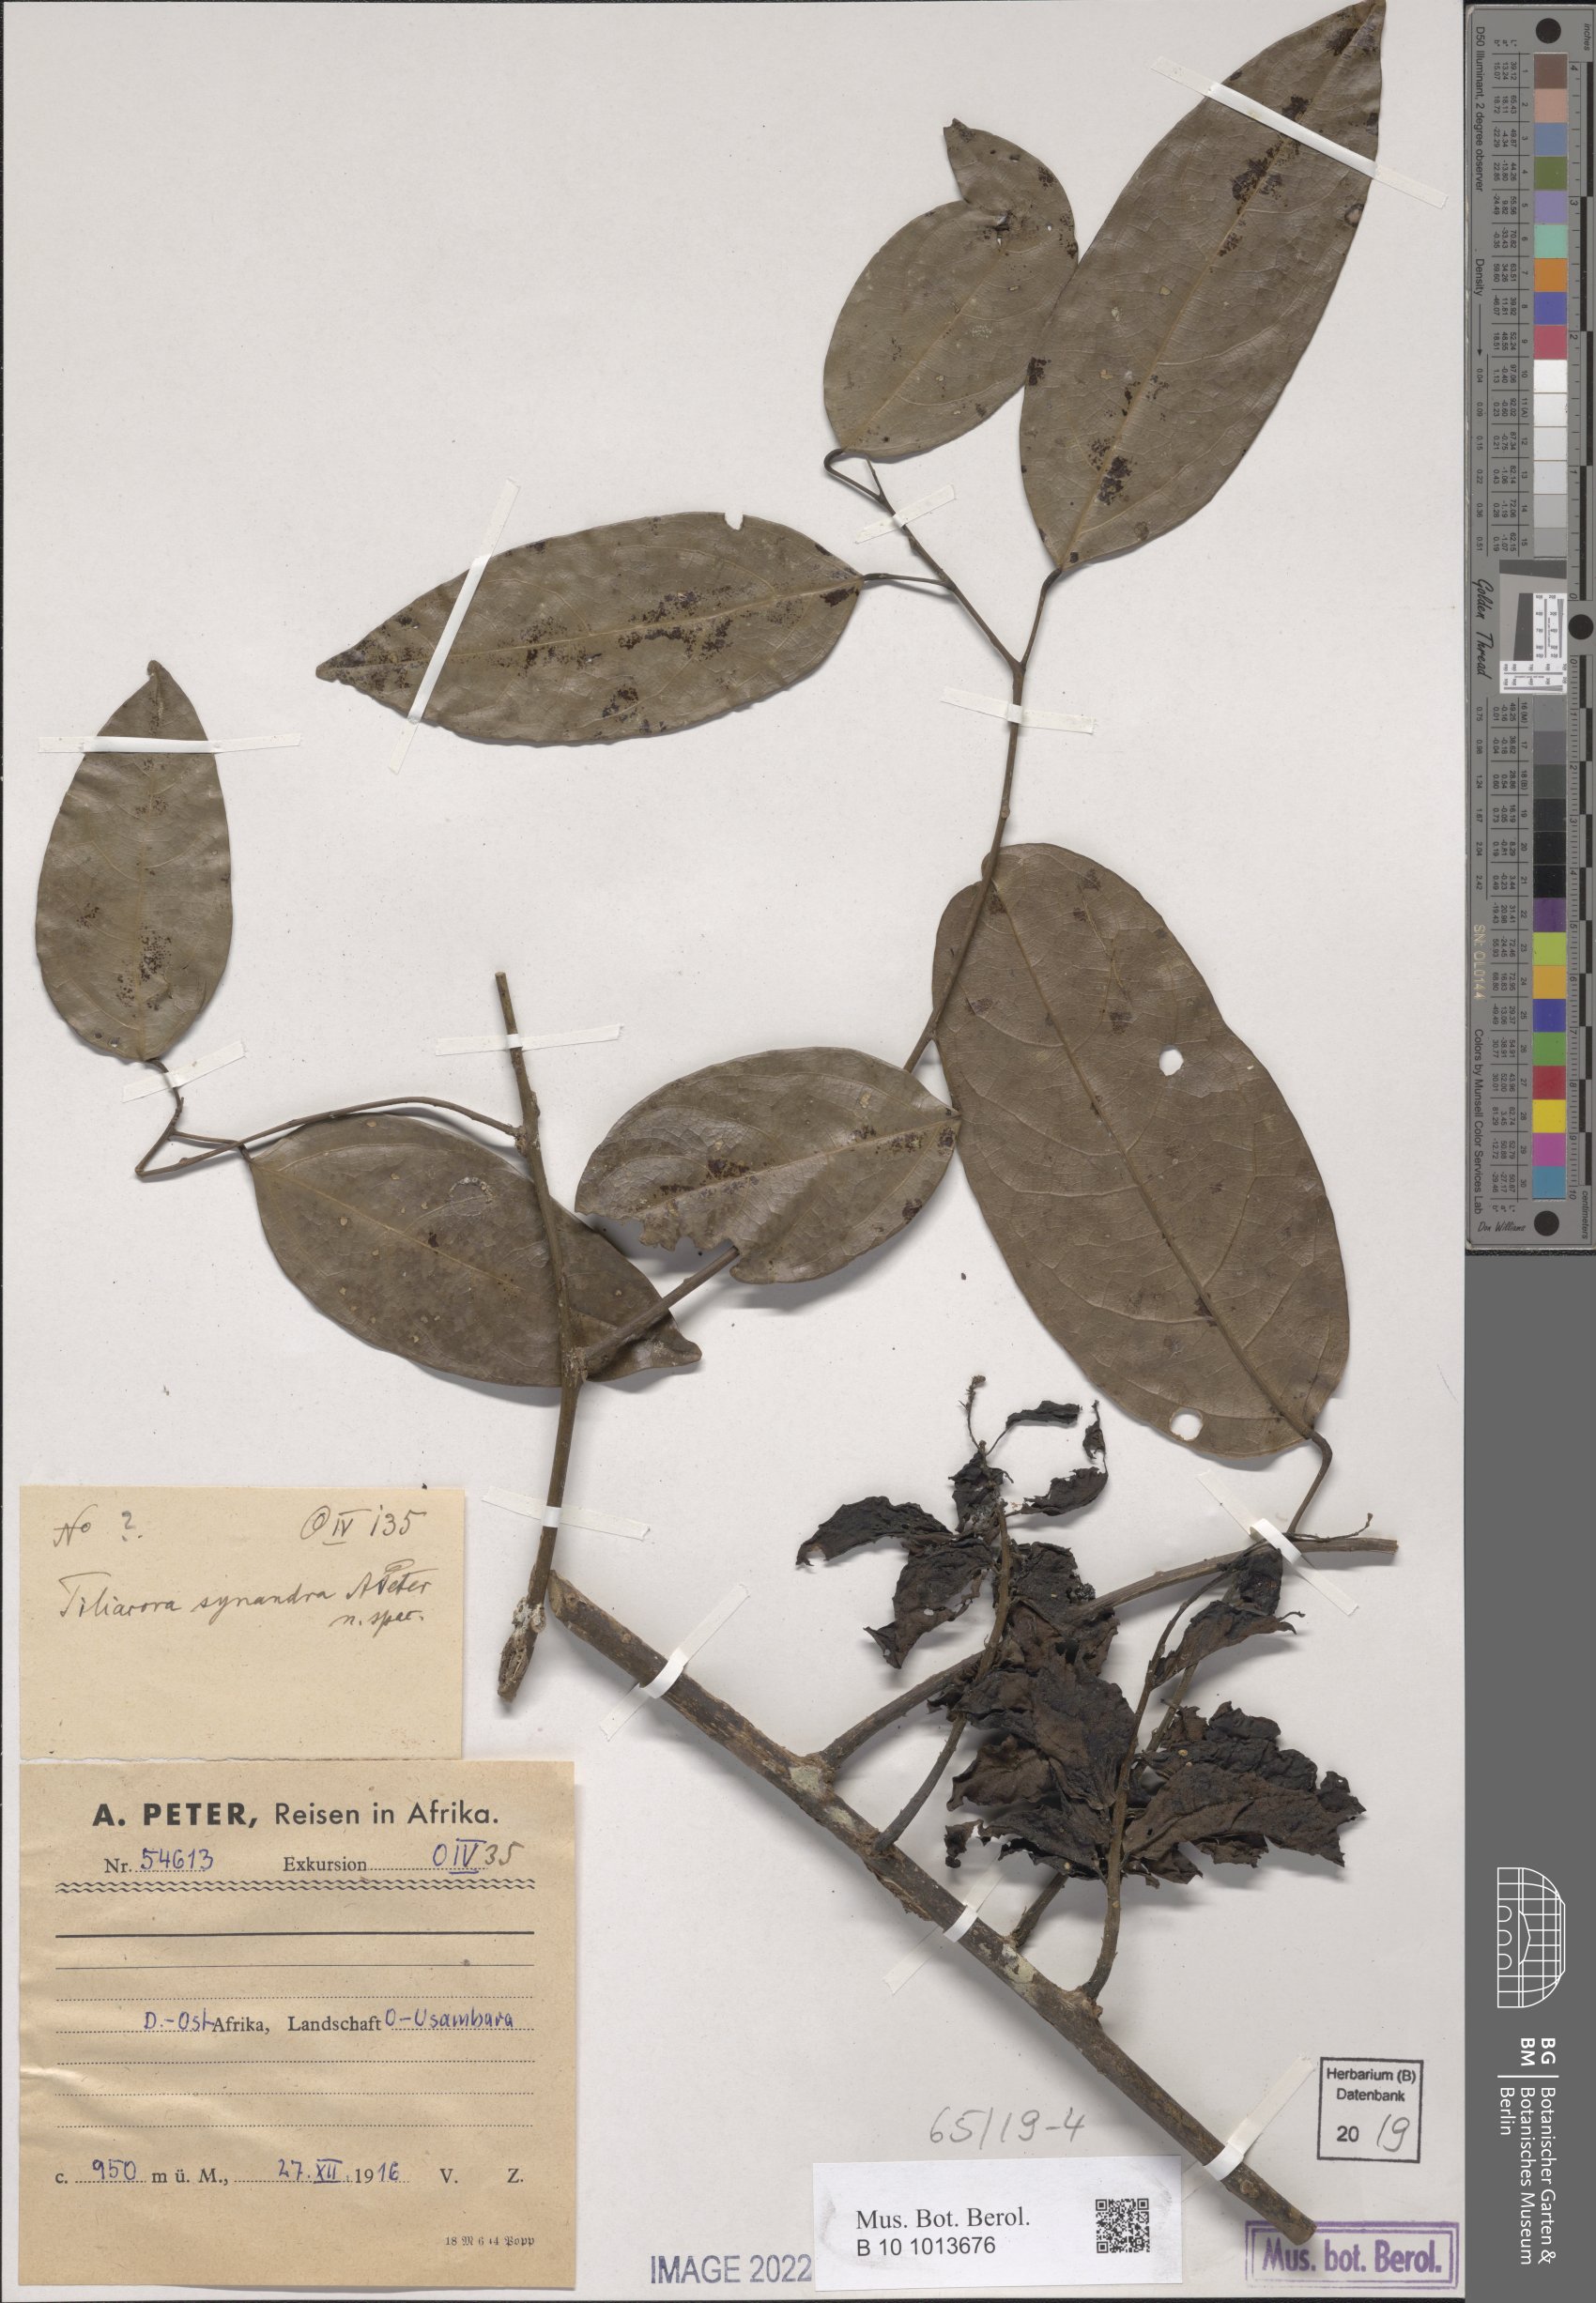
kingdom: Plantae
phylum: Tracheophyta
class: Magnoliopsida
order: Ranunculales
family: Menispermaceae
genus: Tiliacora
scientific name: Tiliacora
